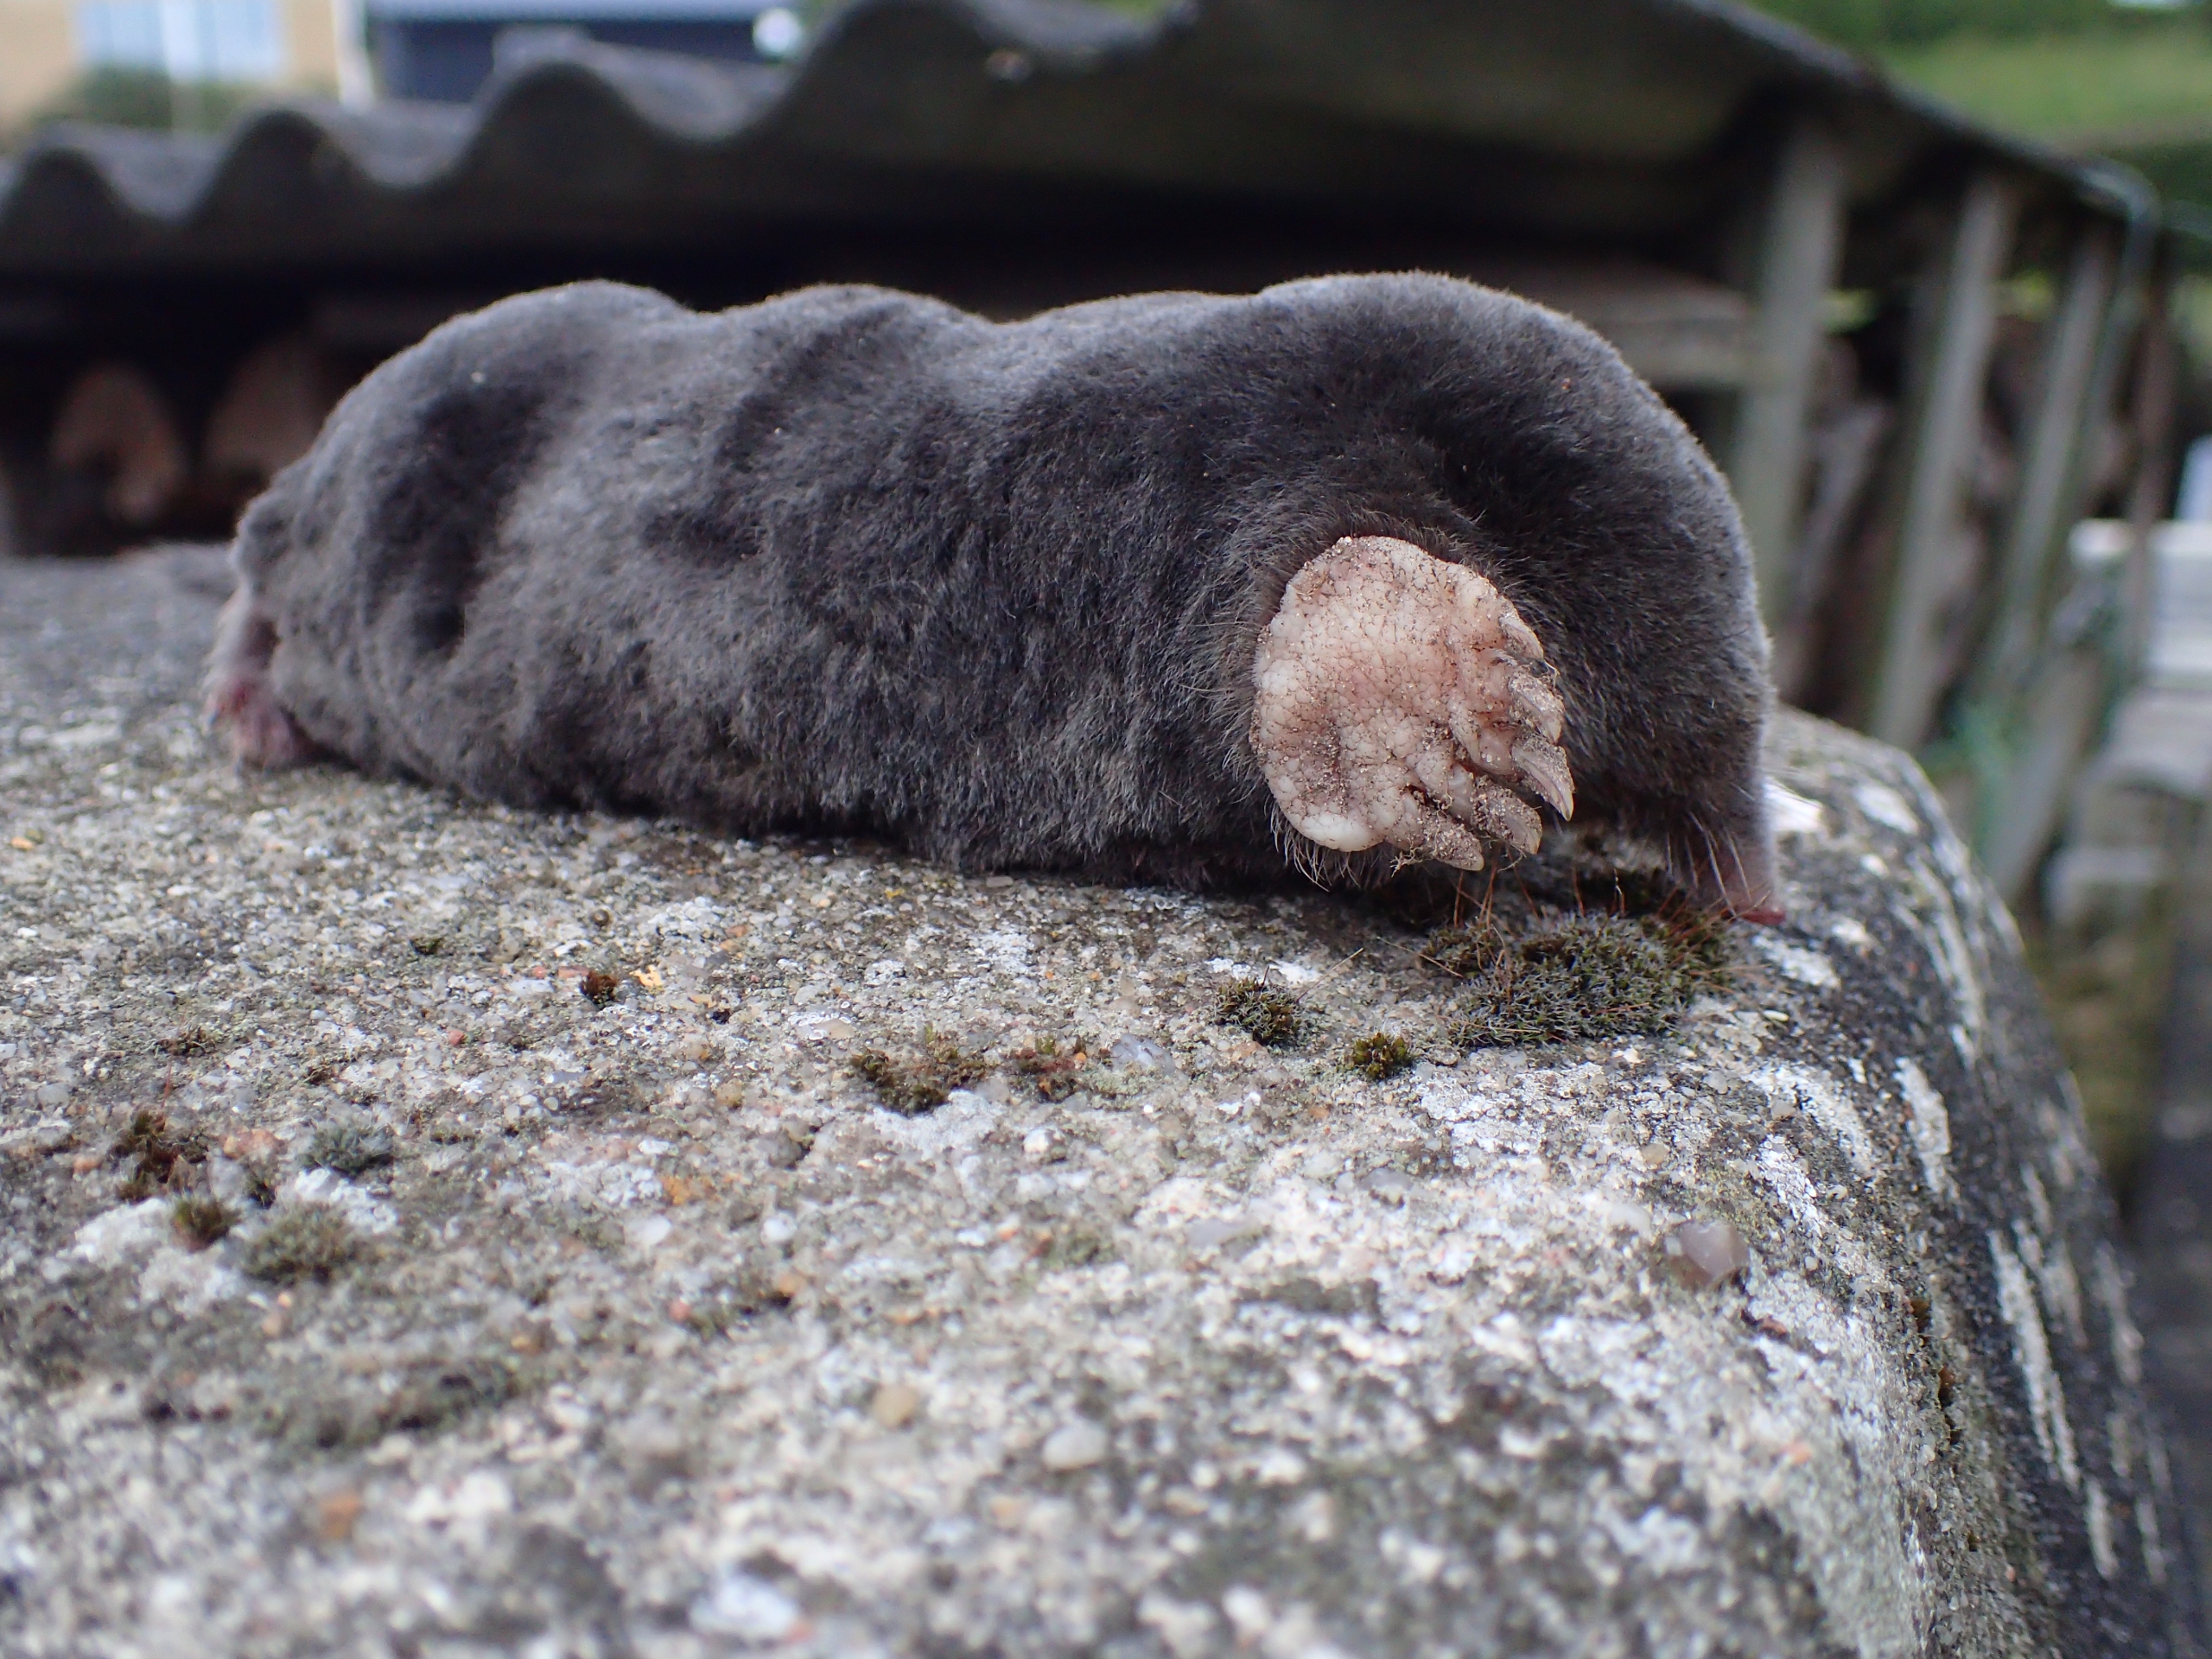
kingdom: Animalia
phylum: Chordata
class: Mammalia
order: Soricomorpha
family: Talpidae
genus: Talpa
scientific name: Talpa europaea
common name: Muldvarp
